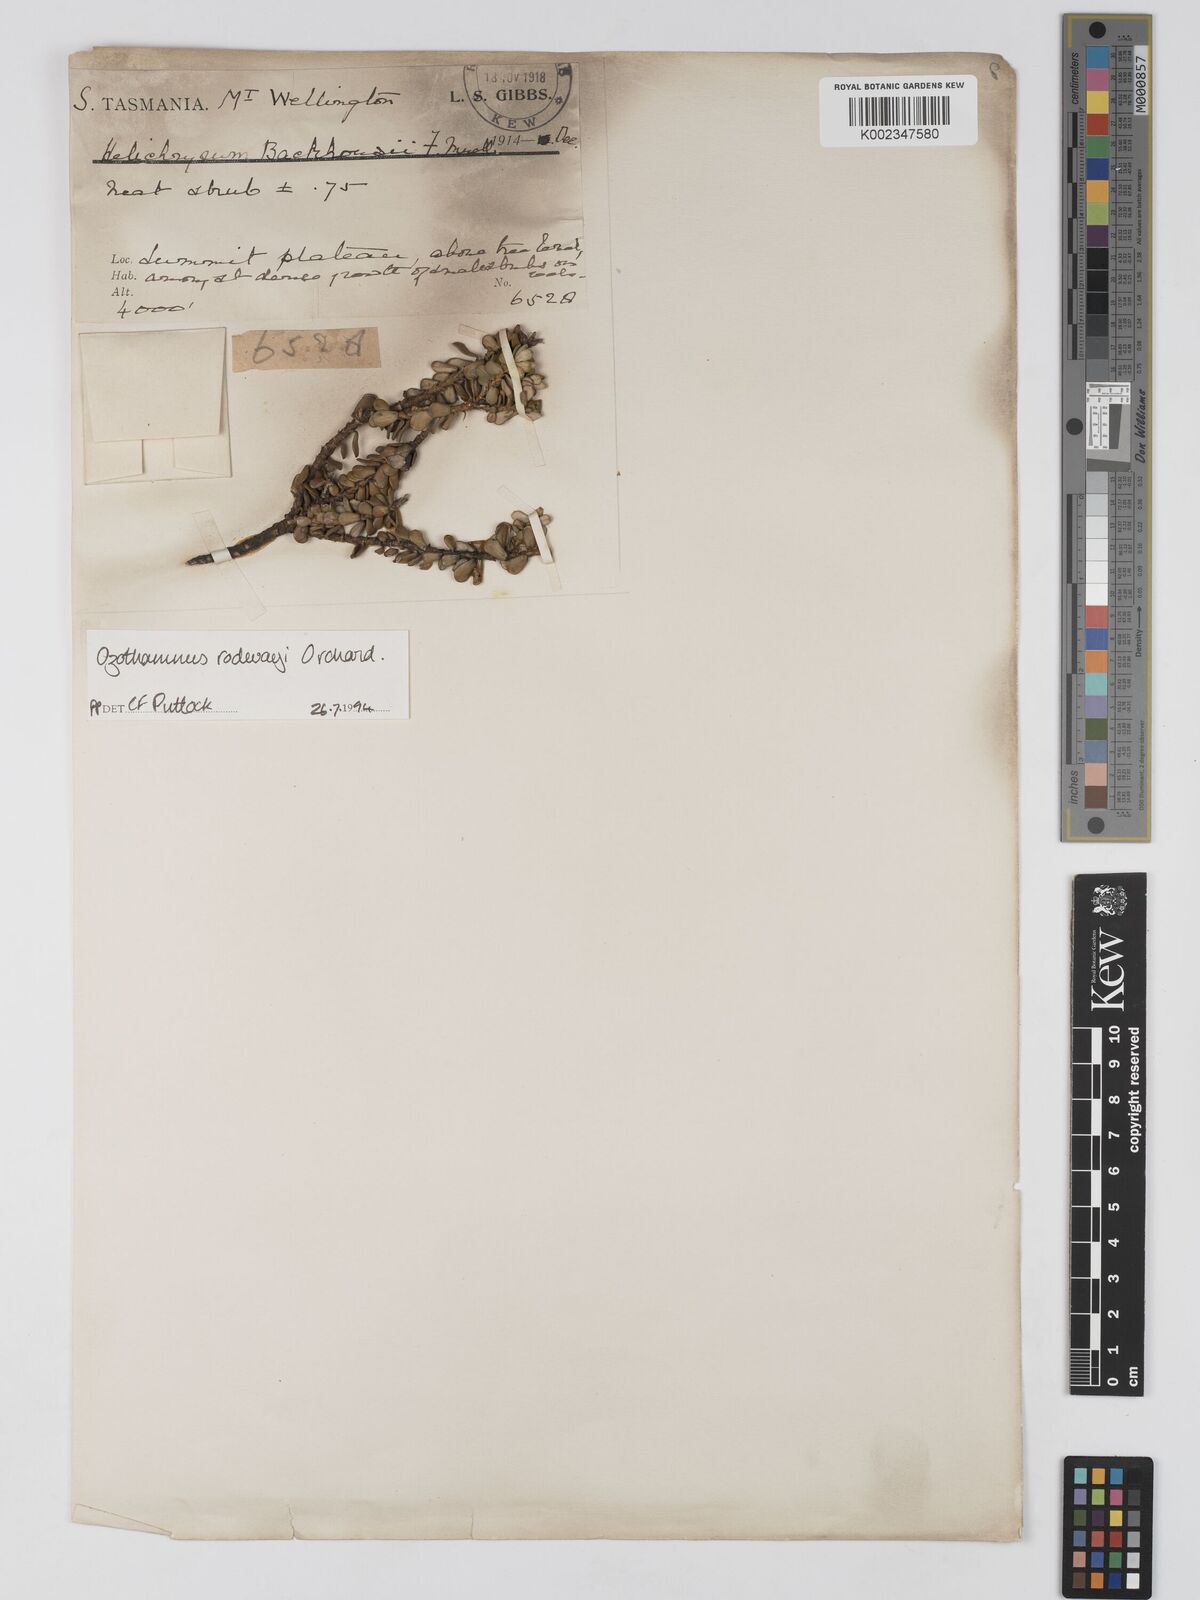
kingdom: Plantae
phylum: Tracheophyta
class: Magnoliopsida
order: Asterales
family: Asteraceae
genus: Ozothamnus
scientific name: Ozothamnus rodwayi
